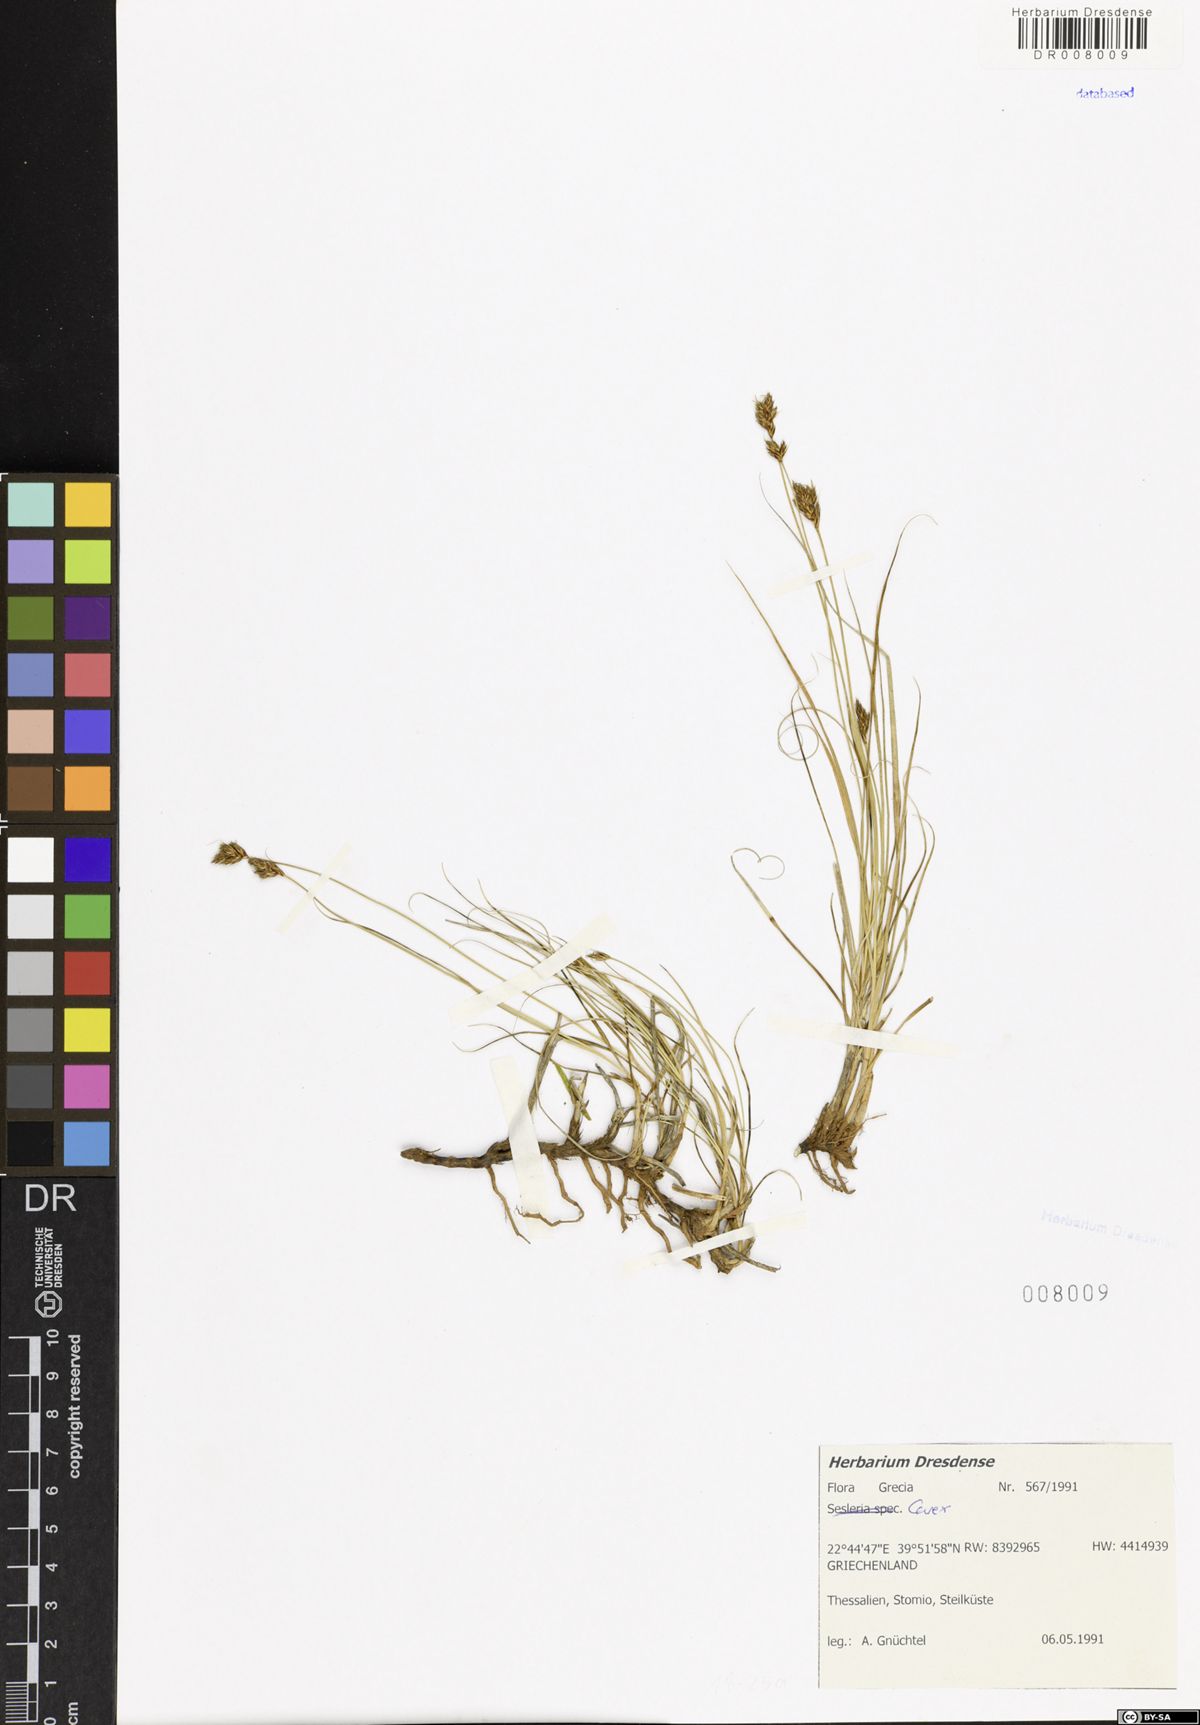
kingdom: Plantae
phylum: Tracheophyta
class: Liliopsida
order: Poales
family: Cyperaceae
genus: Carex
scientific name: Carex
